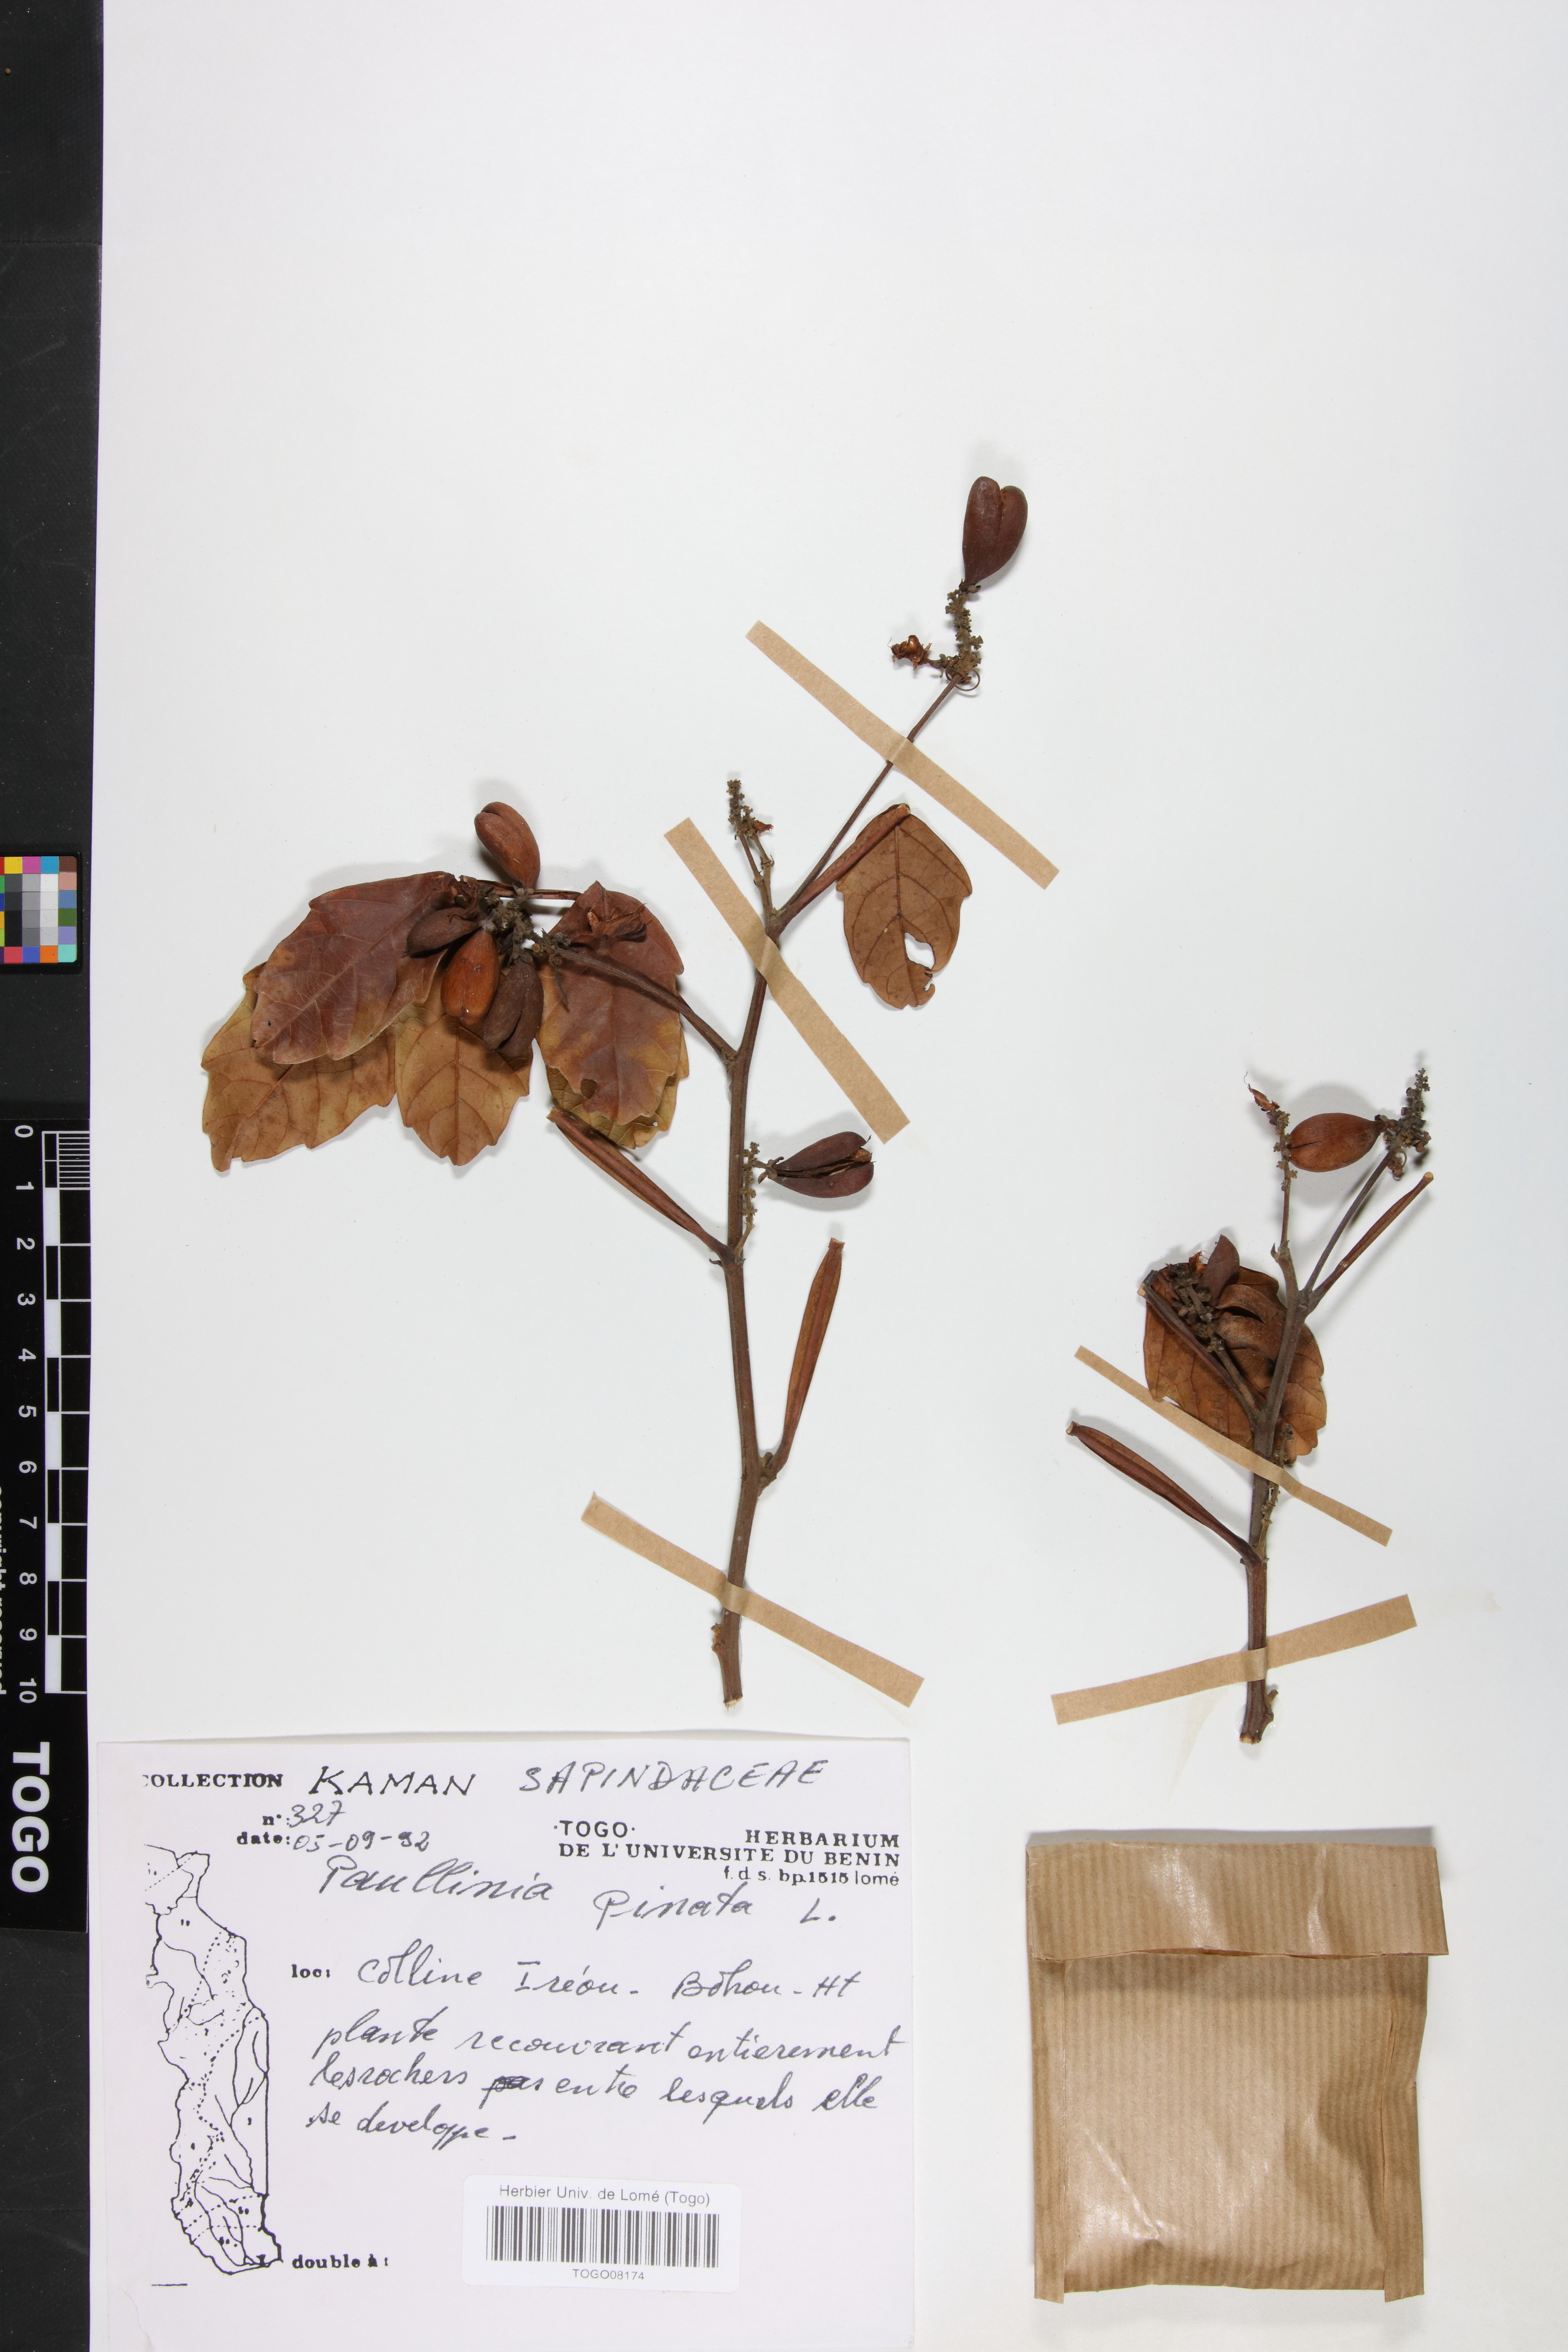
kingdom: Plantae
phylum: Tracheophyta
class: Magnoliopsida
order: Sapindales
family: Sapindaceae
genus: Paullinia
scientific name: Paullinia pinnata
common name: Barbasco
